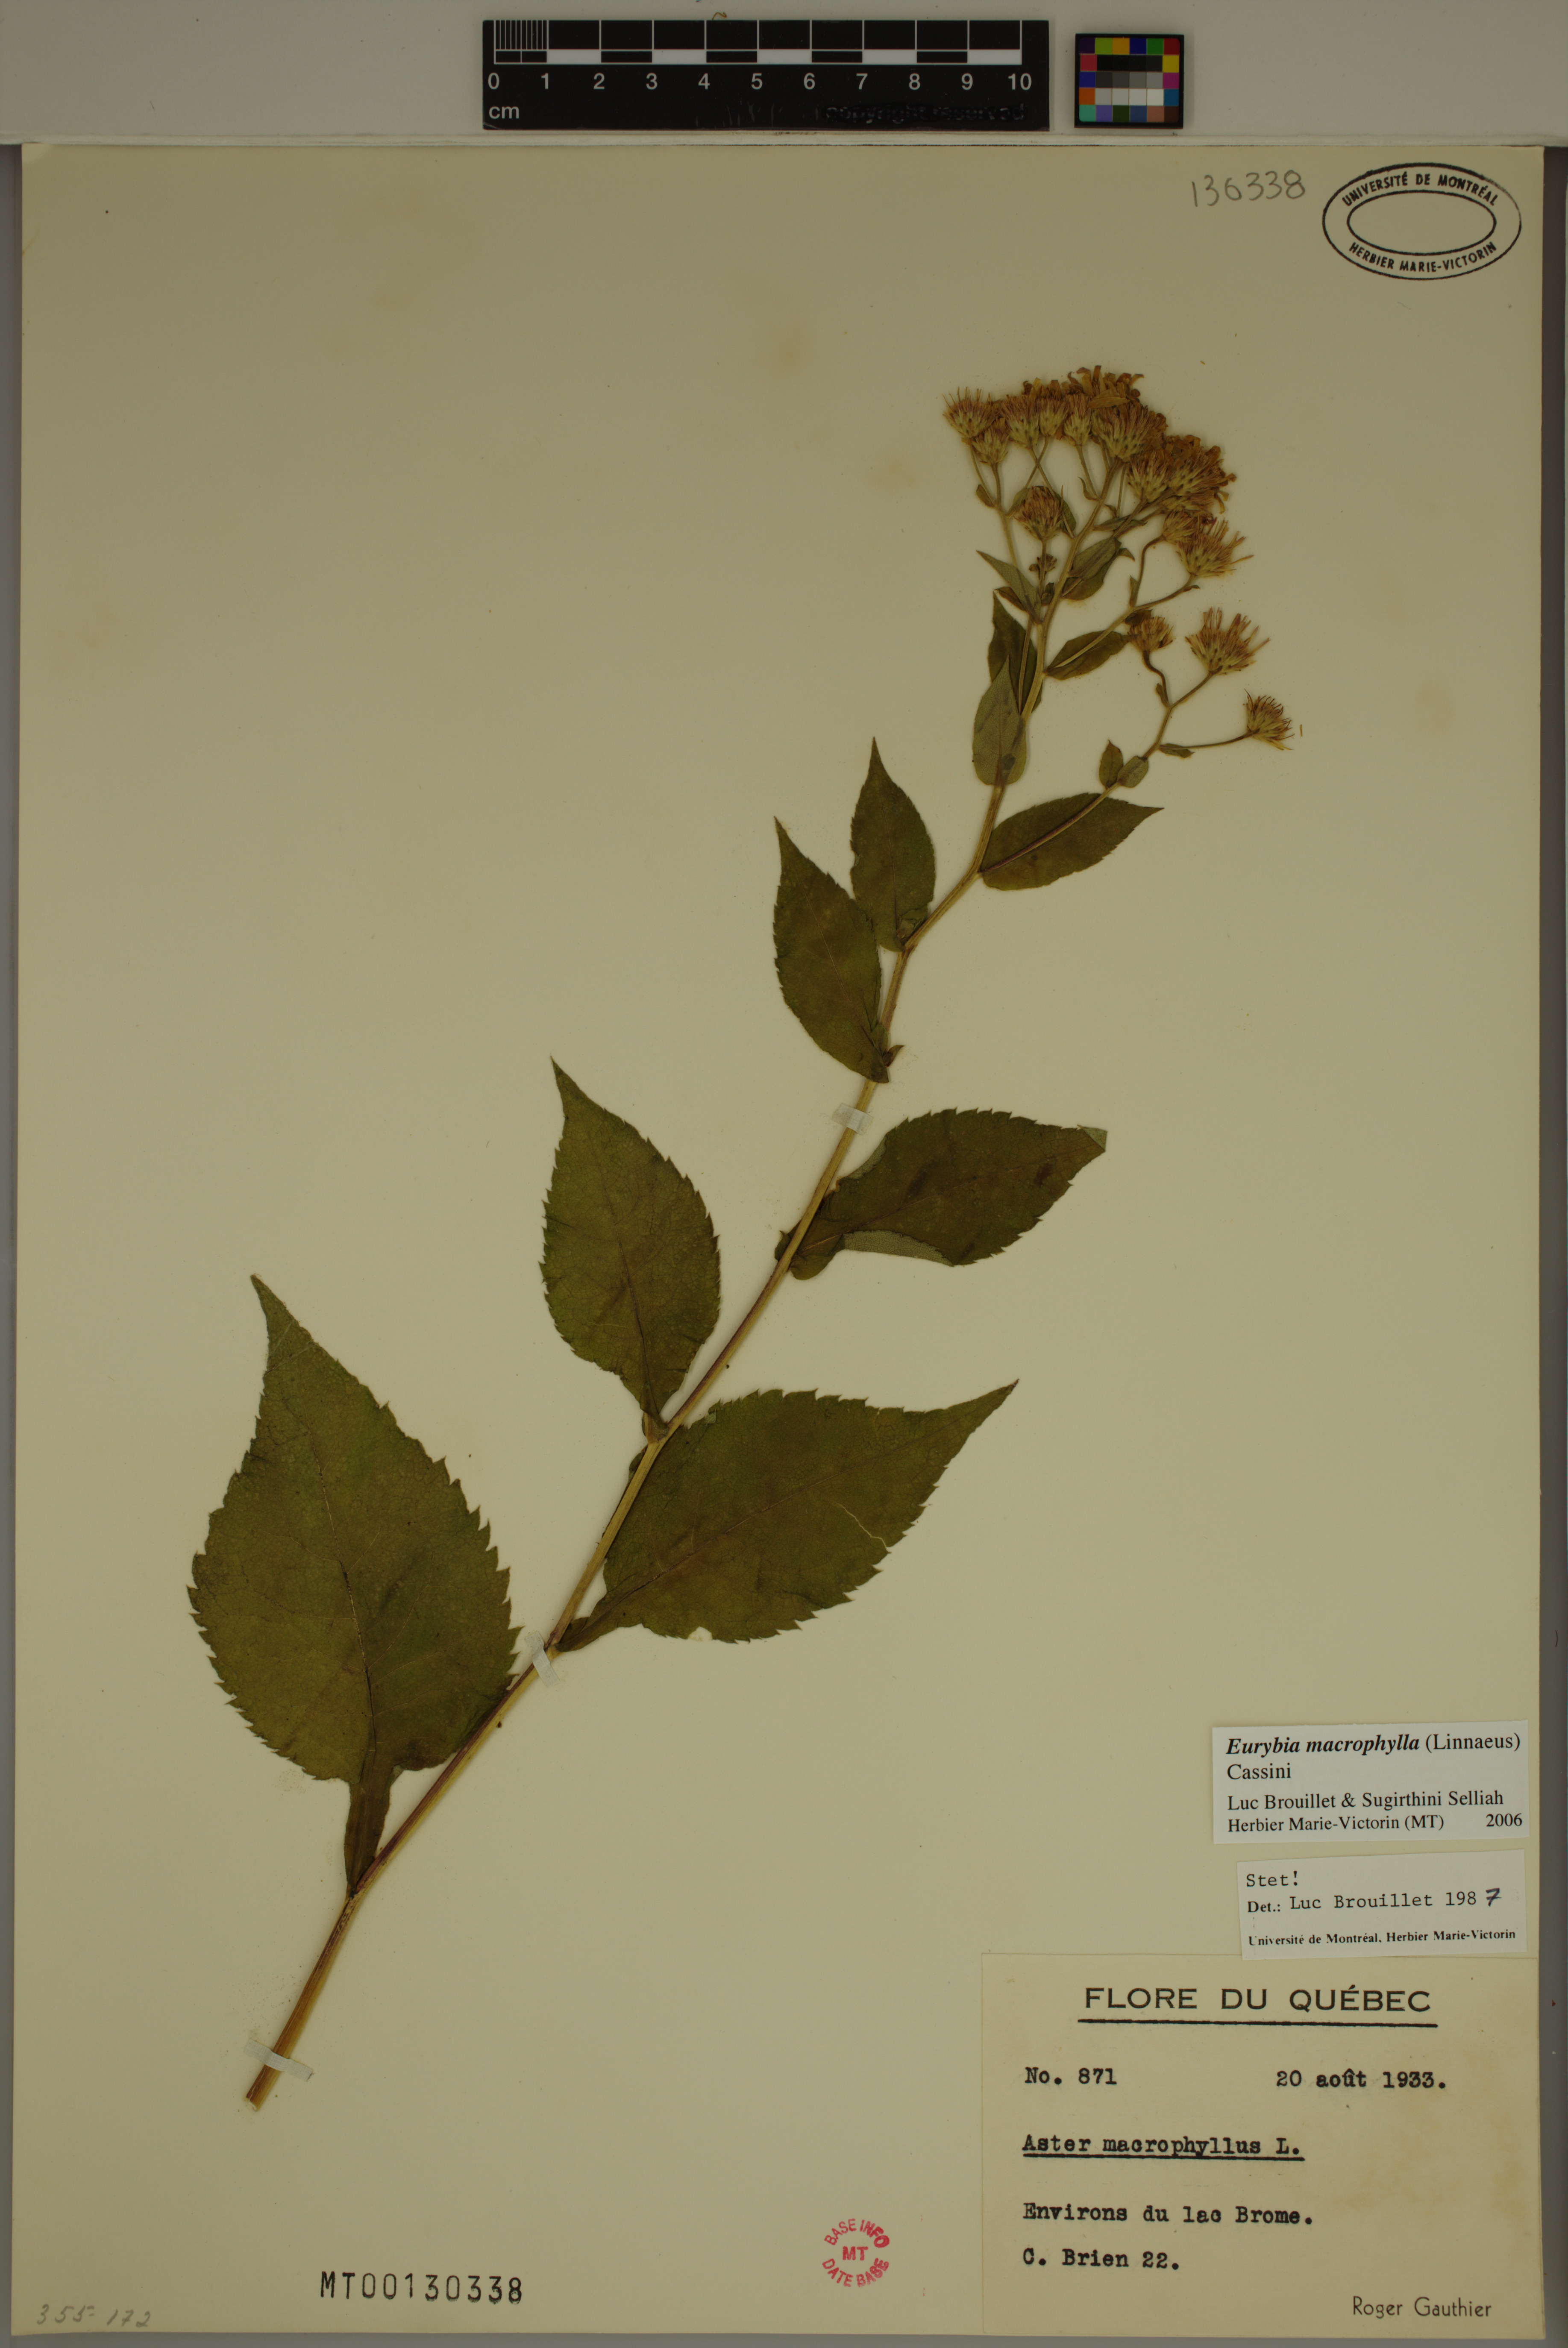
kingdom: Plantae
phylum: Tracheophyta
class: Magnoliopsida
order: Asterales
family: Asteraceae
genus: Eurybia
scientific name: Eurybia macrophylla
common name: Big-leaved aster
